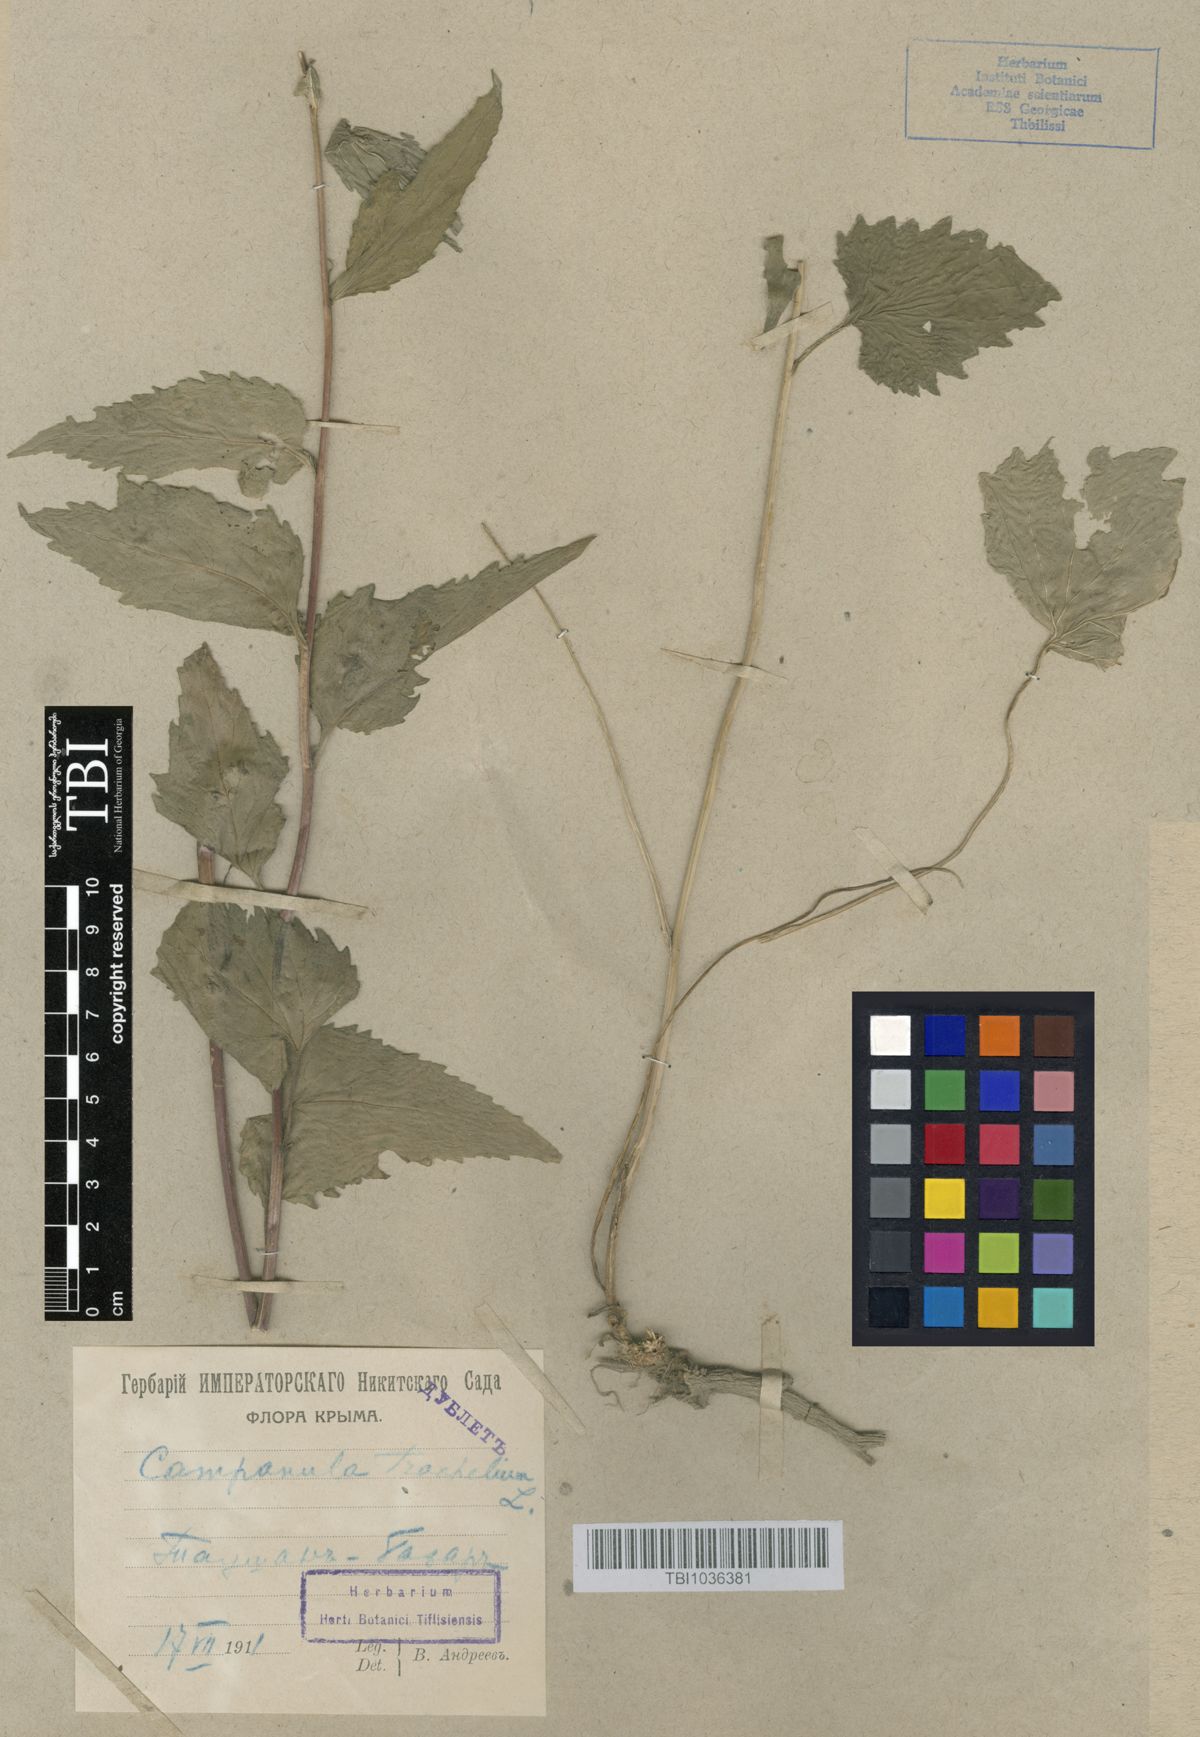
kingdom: Plantae
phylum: Tracheophyta
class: Magnoliopsida
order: Asterales
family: Campanulaceae
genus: Campanula
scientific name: Campanula trachelium
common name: Nettle-leaved bellflower
